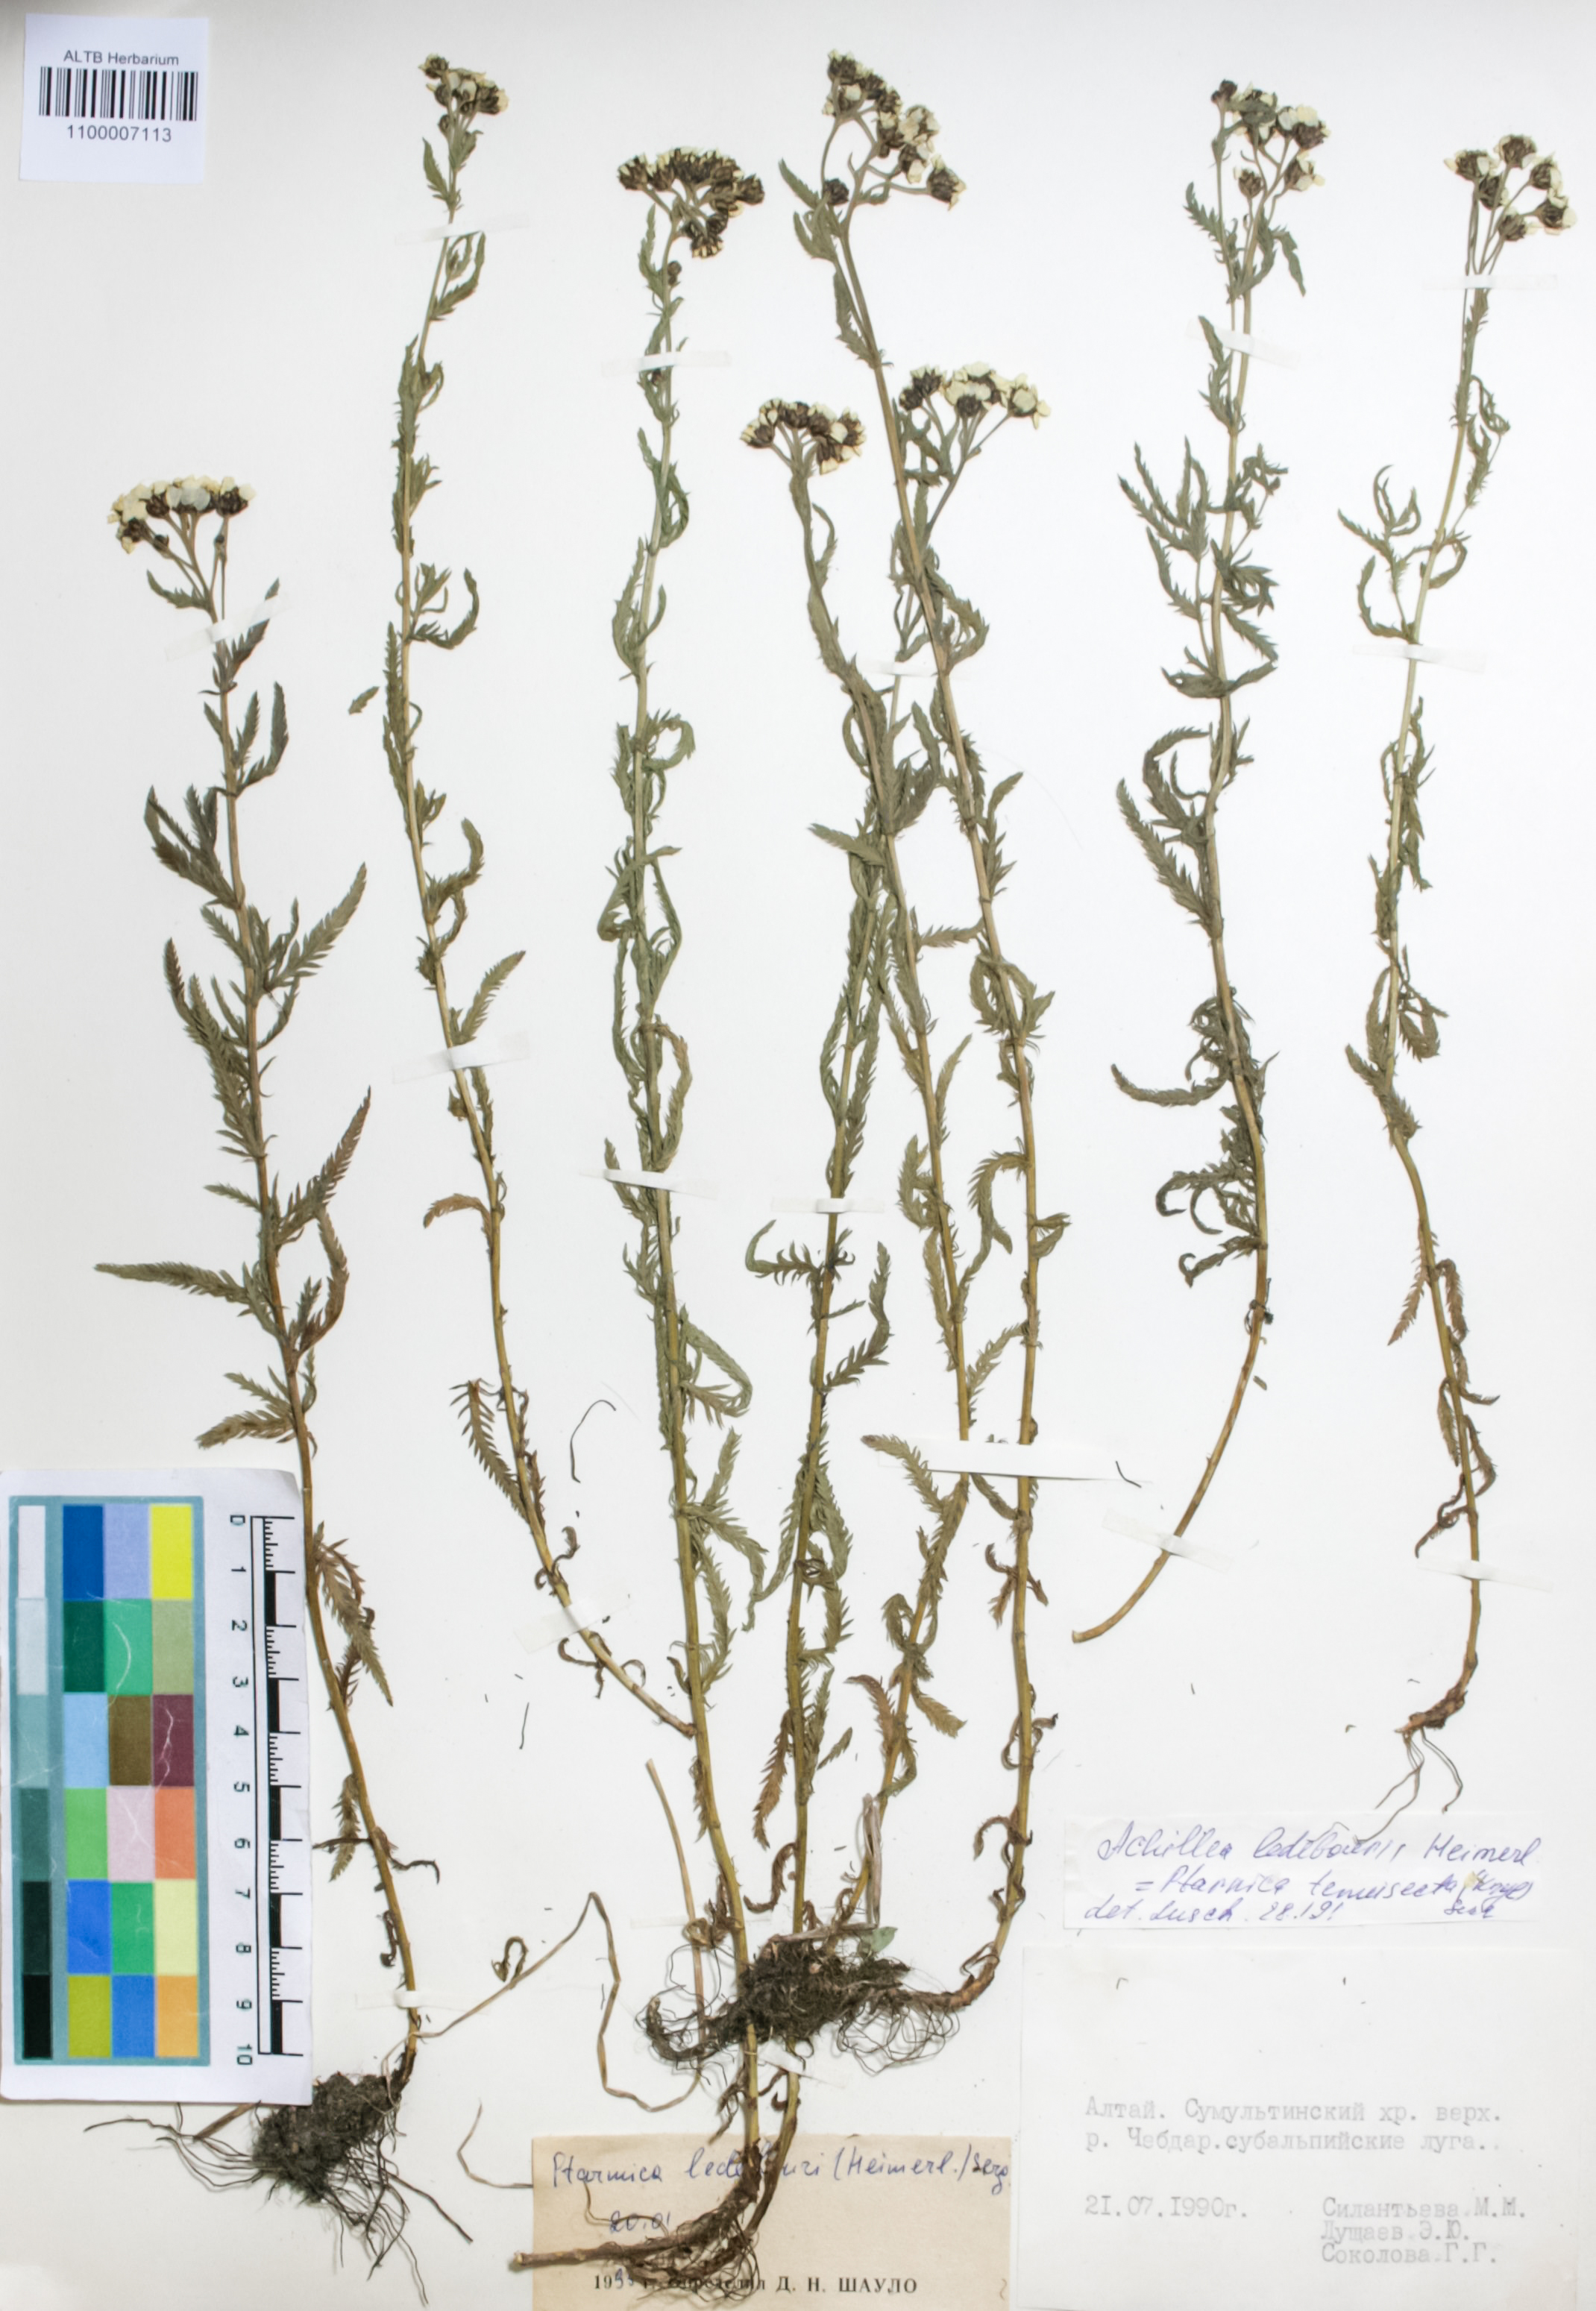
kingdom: Plantae
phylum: Tracheophyta
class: Magnoliopsida
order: Asterales
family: Asteraceae
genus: Achillea
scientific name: Achillea ledebourii
